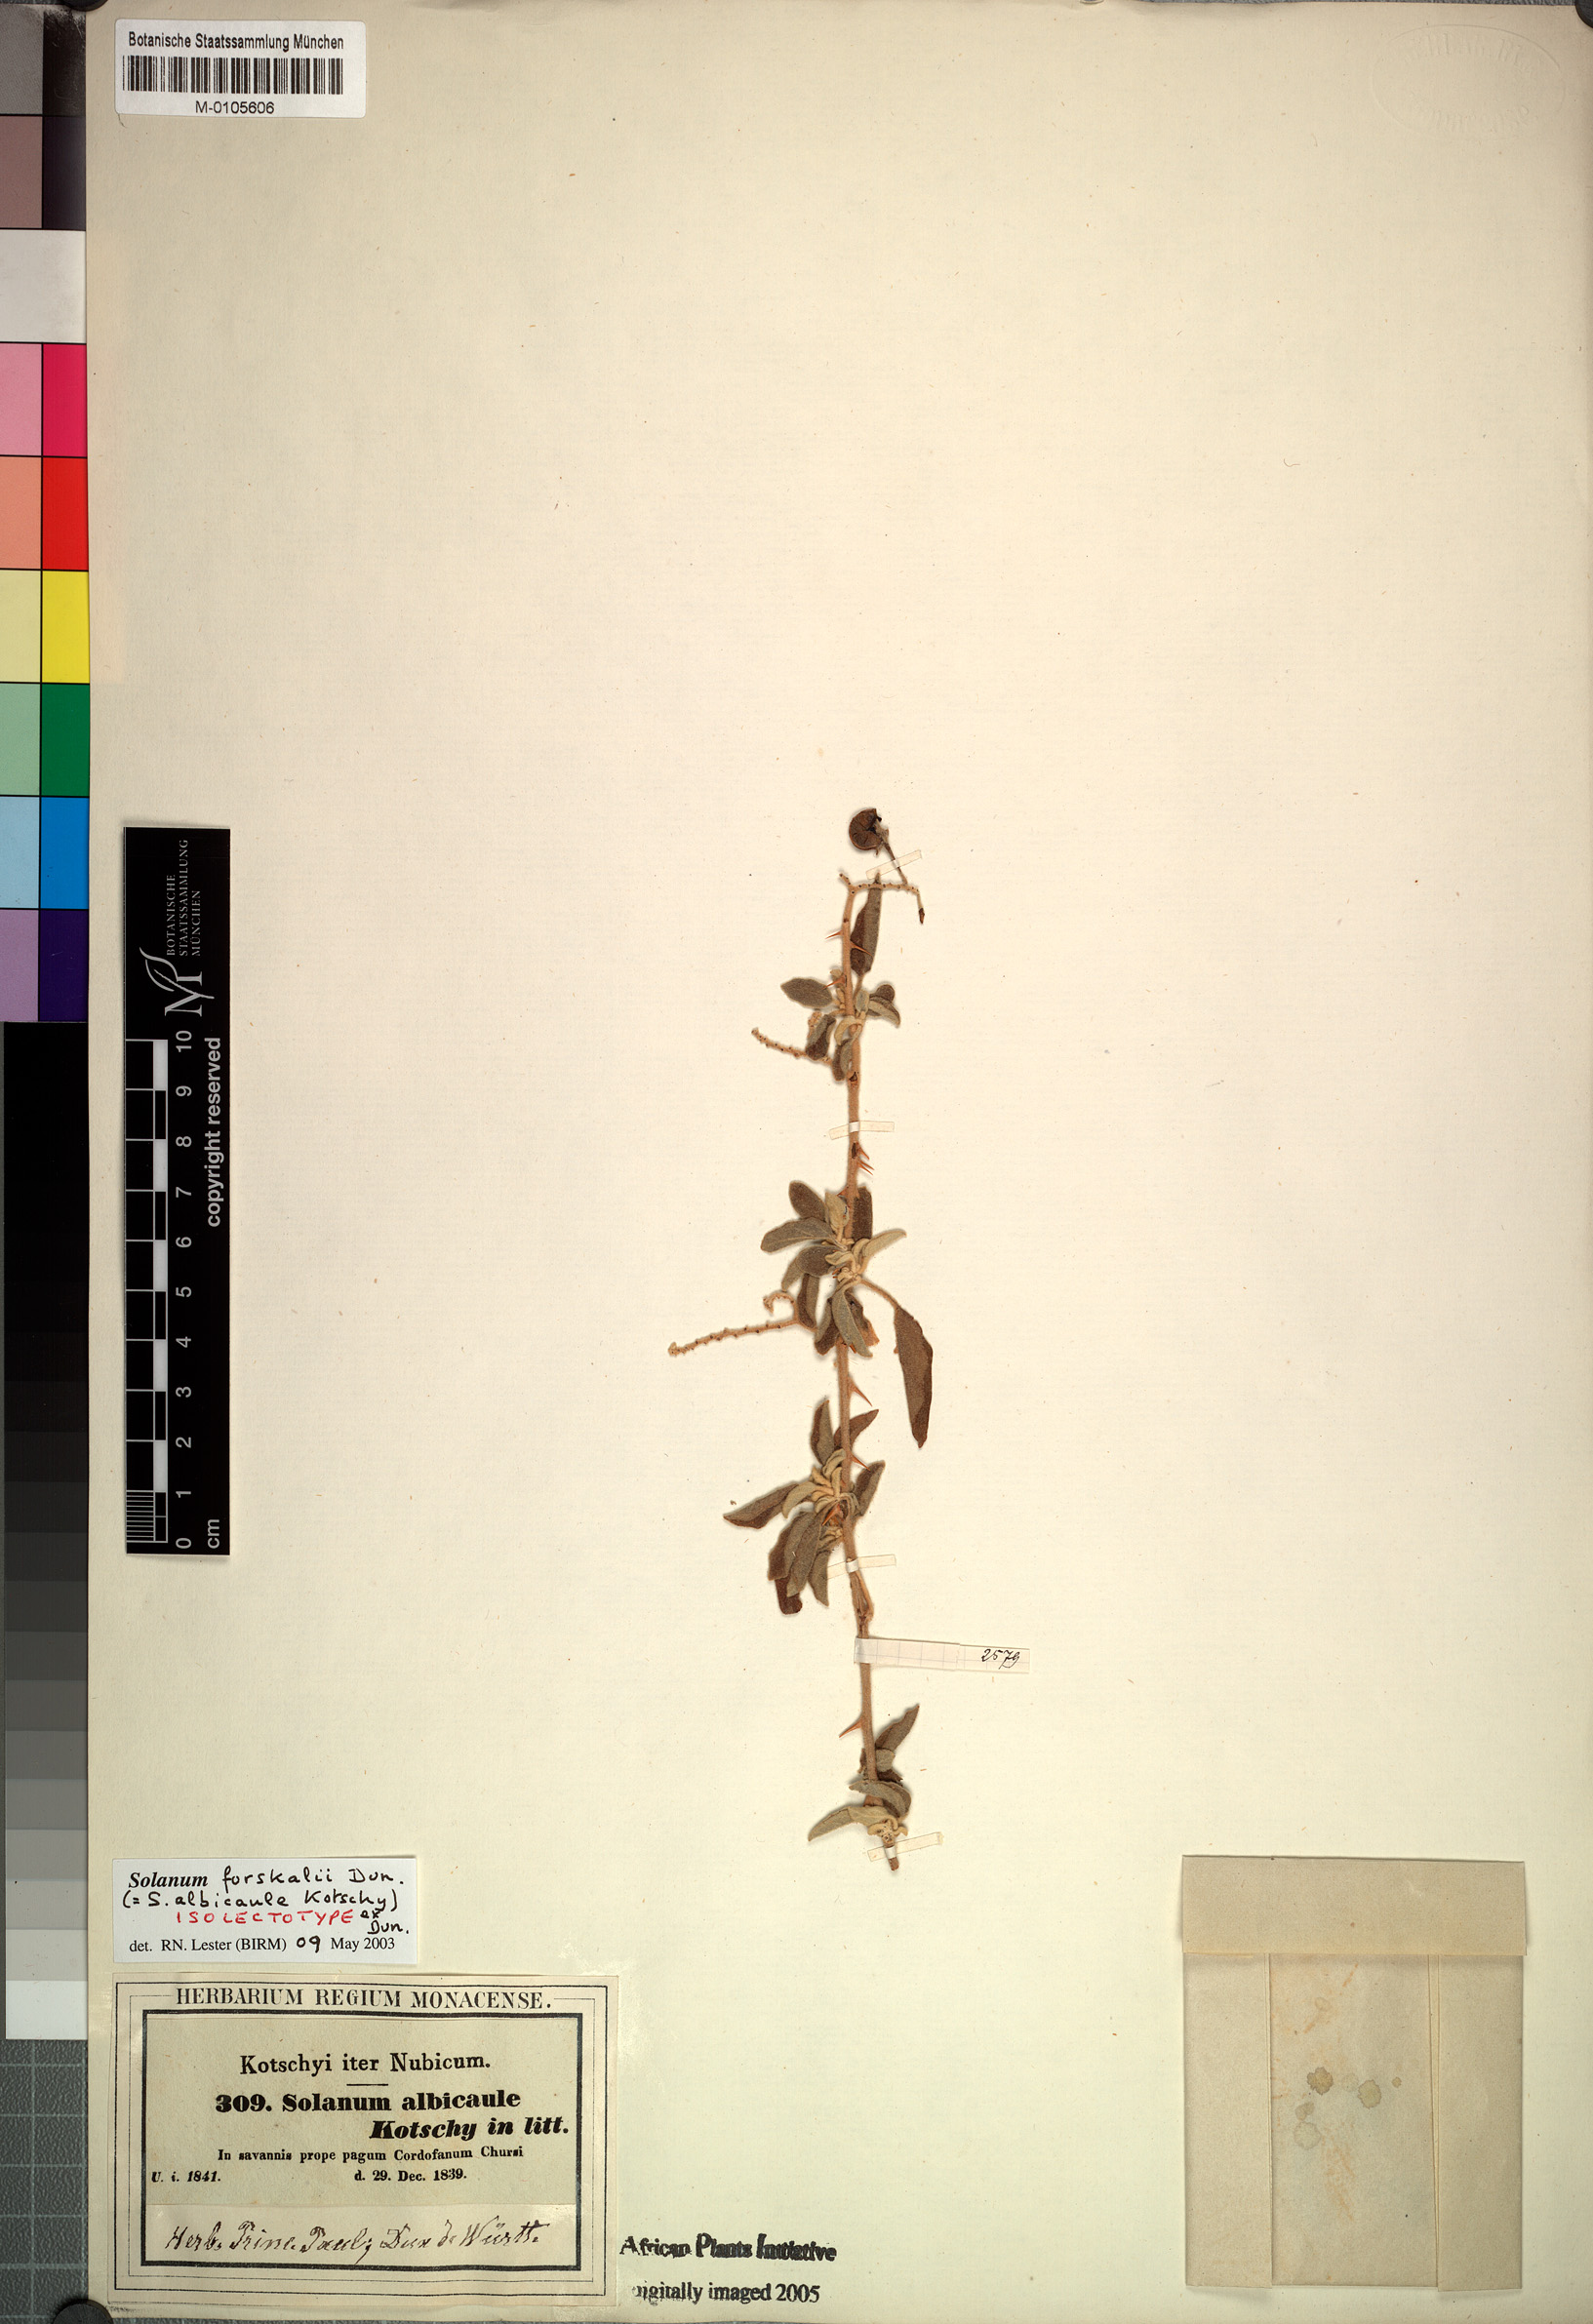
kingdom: Plantae
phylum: Tracheophyta
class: Magnoliopsida
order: Solanales
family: Solanaceae
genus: Solanum
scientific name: Solanum forskalii
